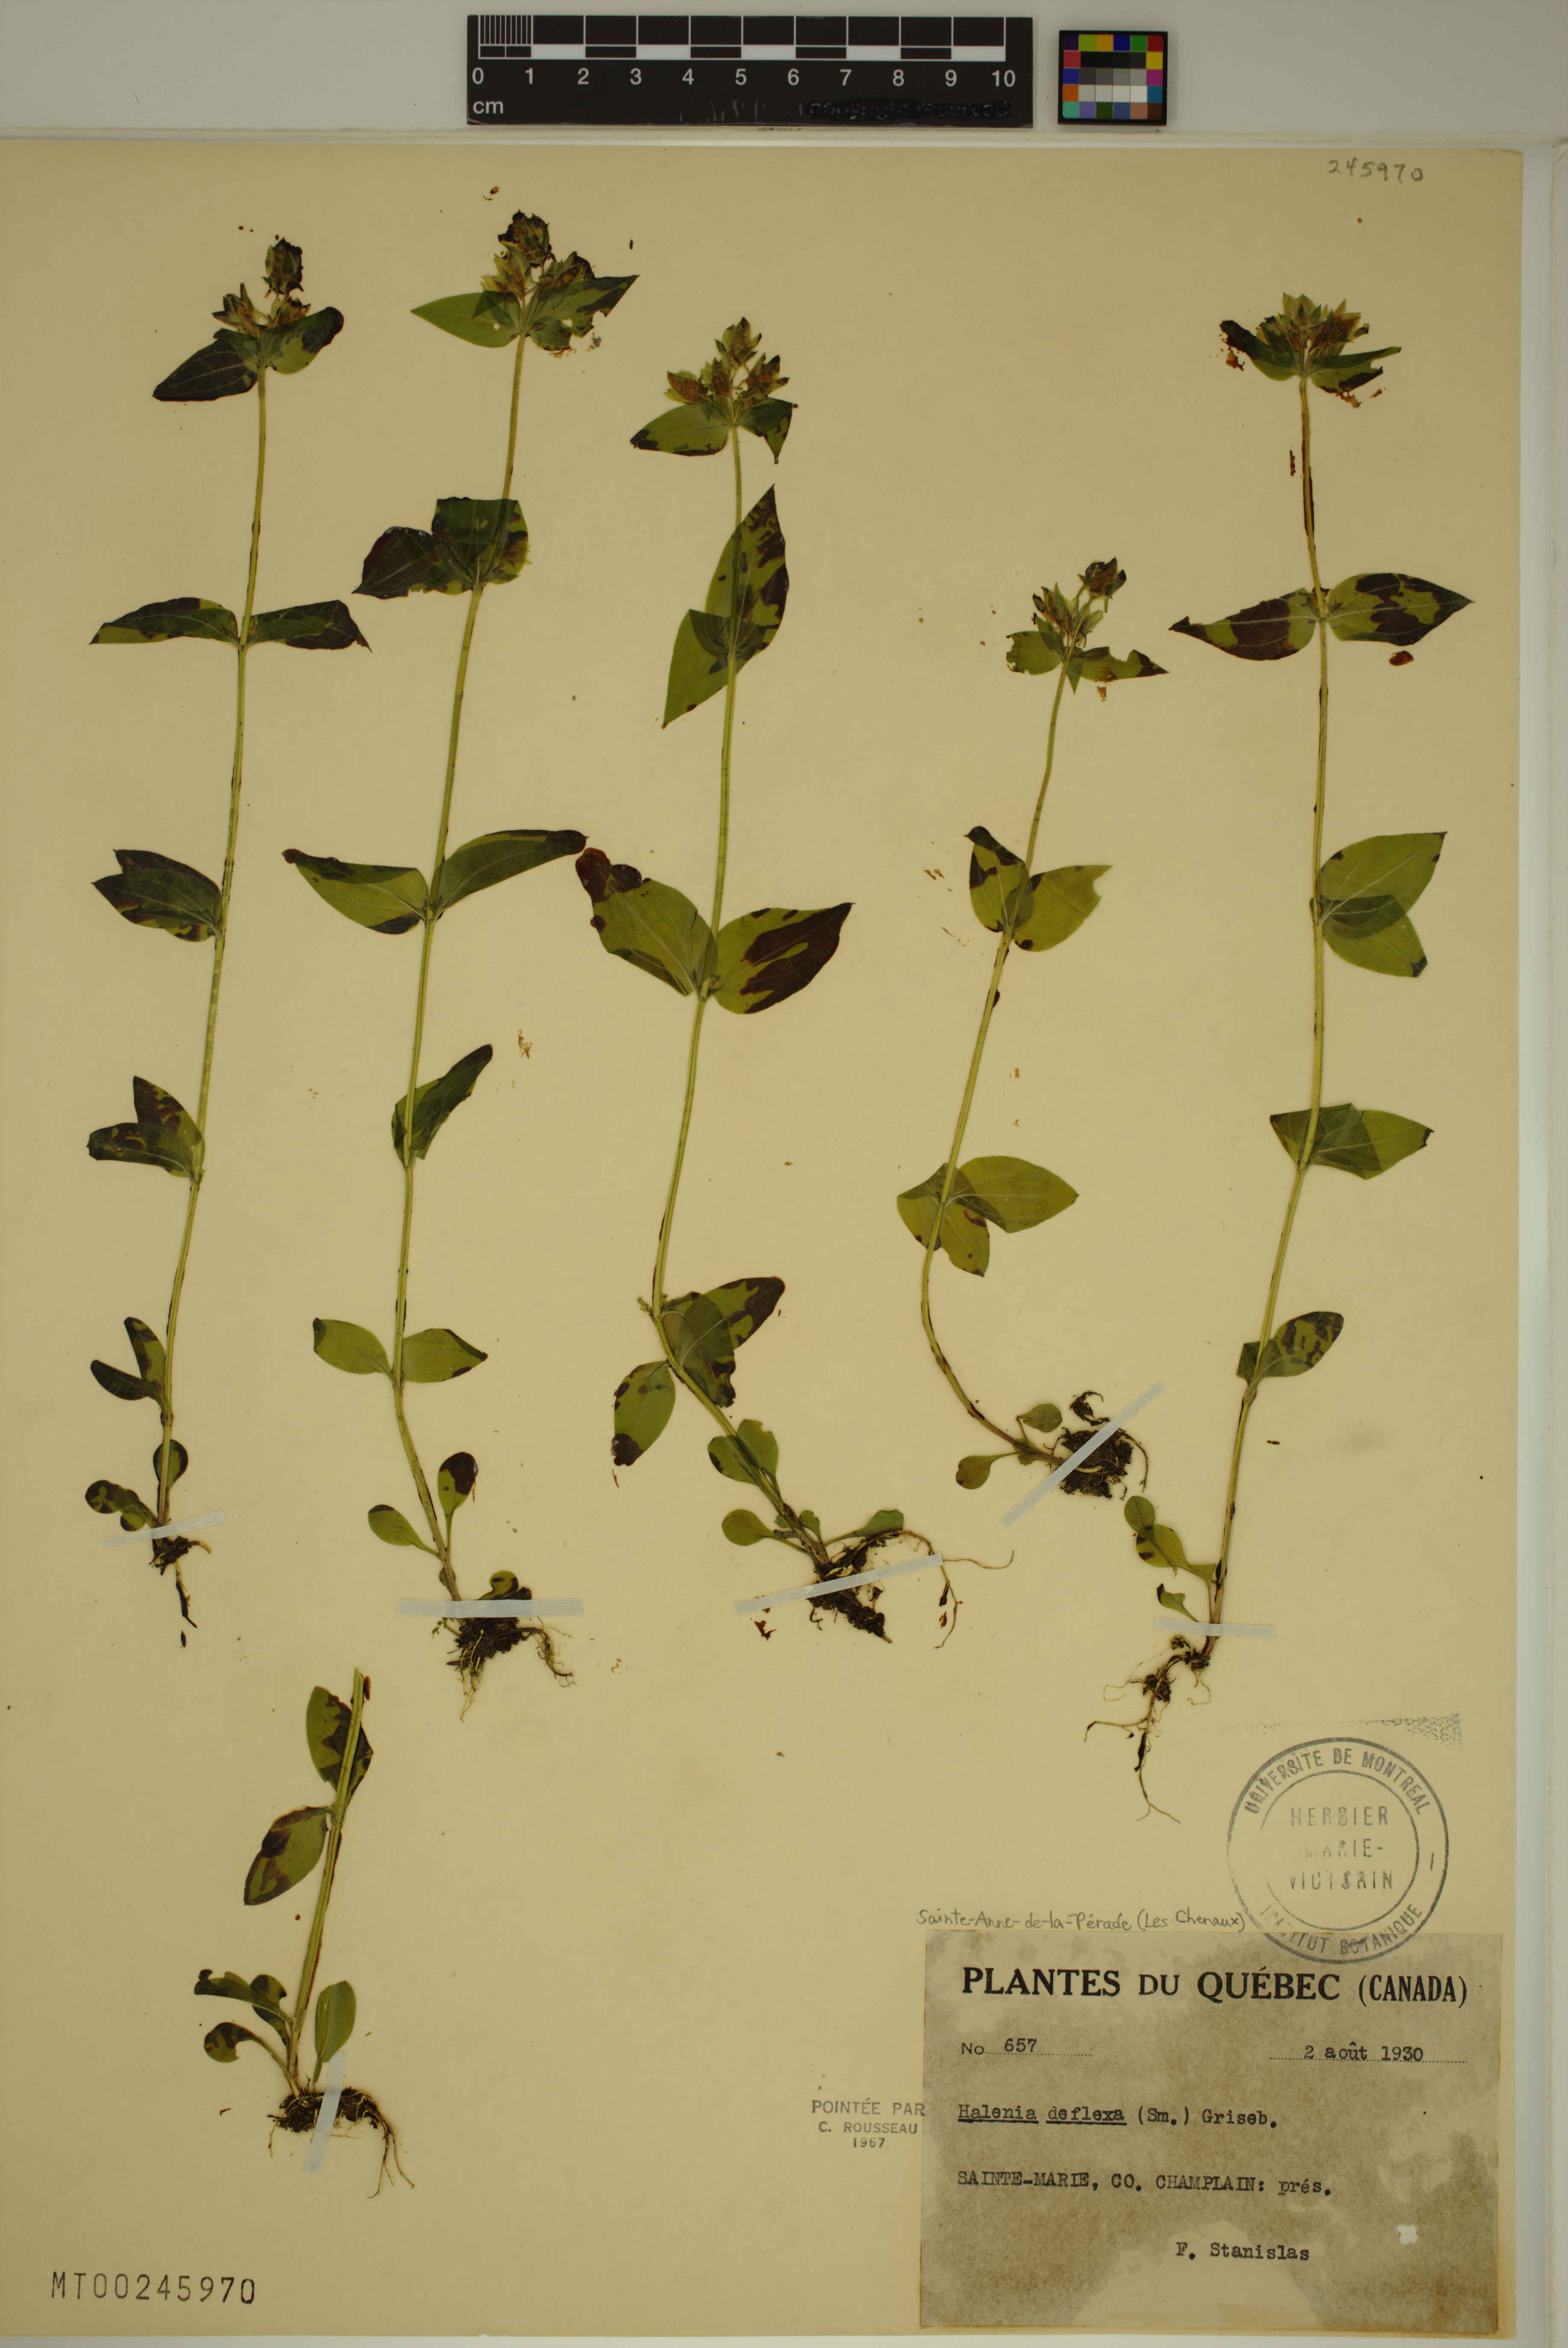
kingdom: Plantae
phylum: Tracheophyta
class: Magnoliopsida
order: Gentianales
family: Gentianaceae
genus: Halenia
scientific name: Halenia deflexa
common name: American spurred gentian
